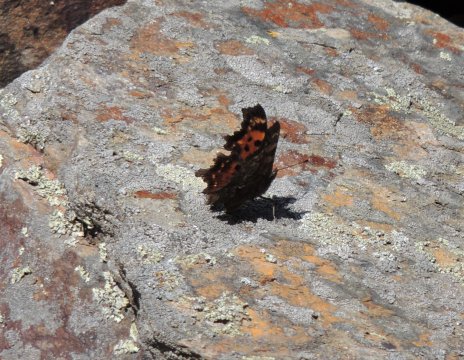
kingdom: Animalia
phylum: Arthropoda
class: Insecta
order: Lepidoptera
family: Nymphalidae
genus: Polygonia
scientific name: Polygonia faunus
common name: Green Comma
